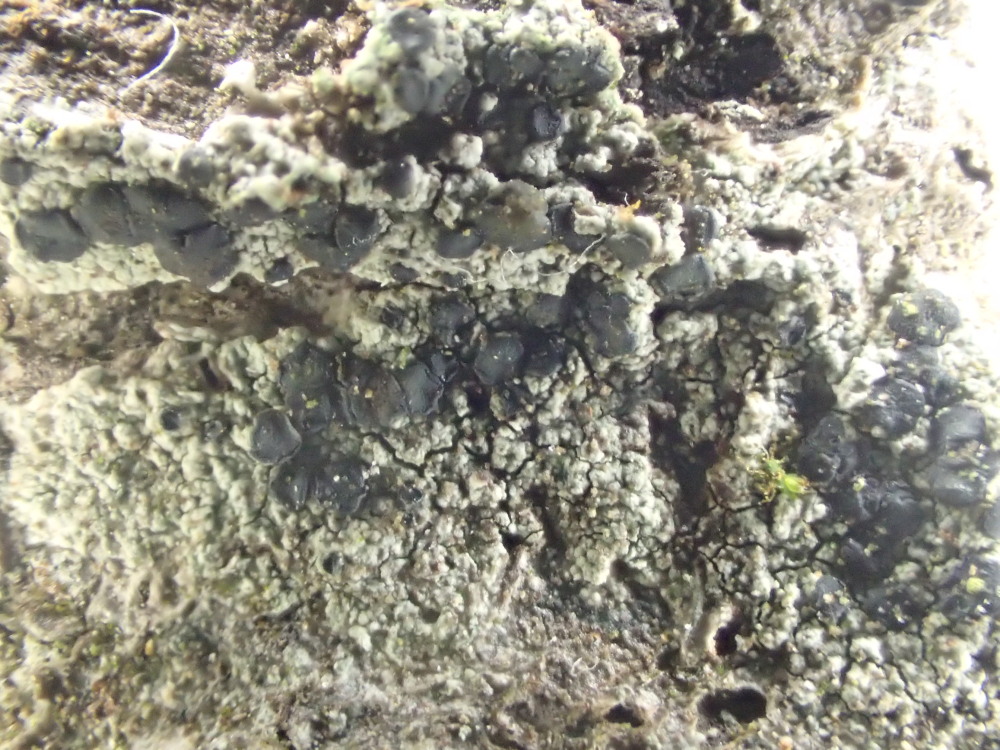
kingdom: Fungi
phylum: Ascomycota
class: Lecanoromycetes
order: Lecanorales
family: Lecanoraceae
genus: Lecidella
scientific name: Lecidella elaeochroma
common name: grågrøn skivelav
